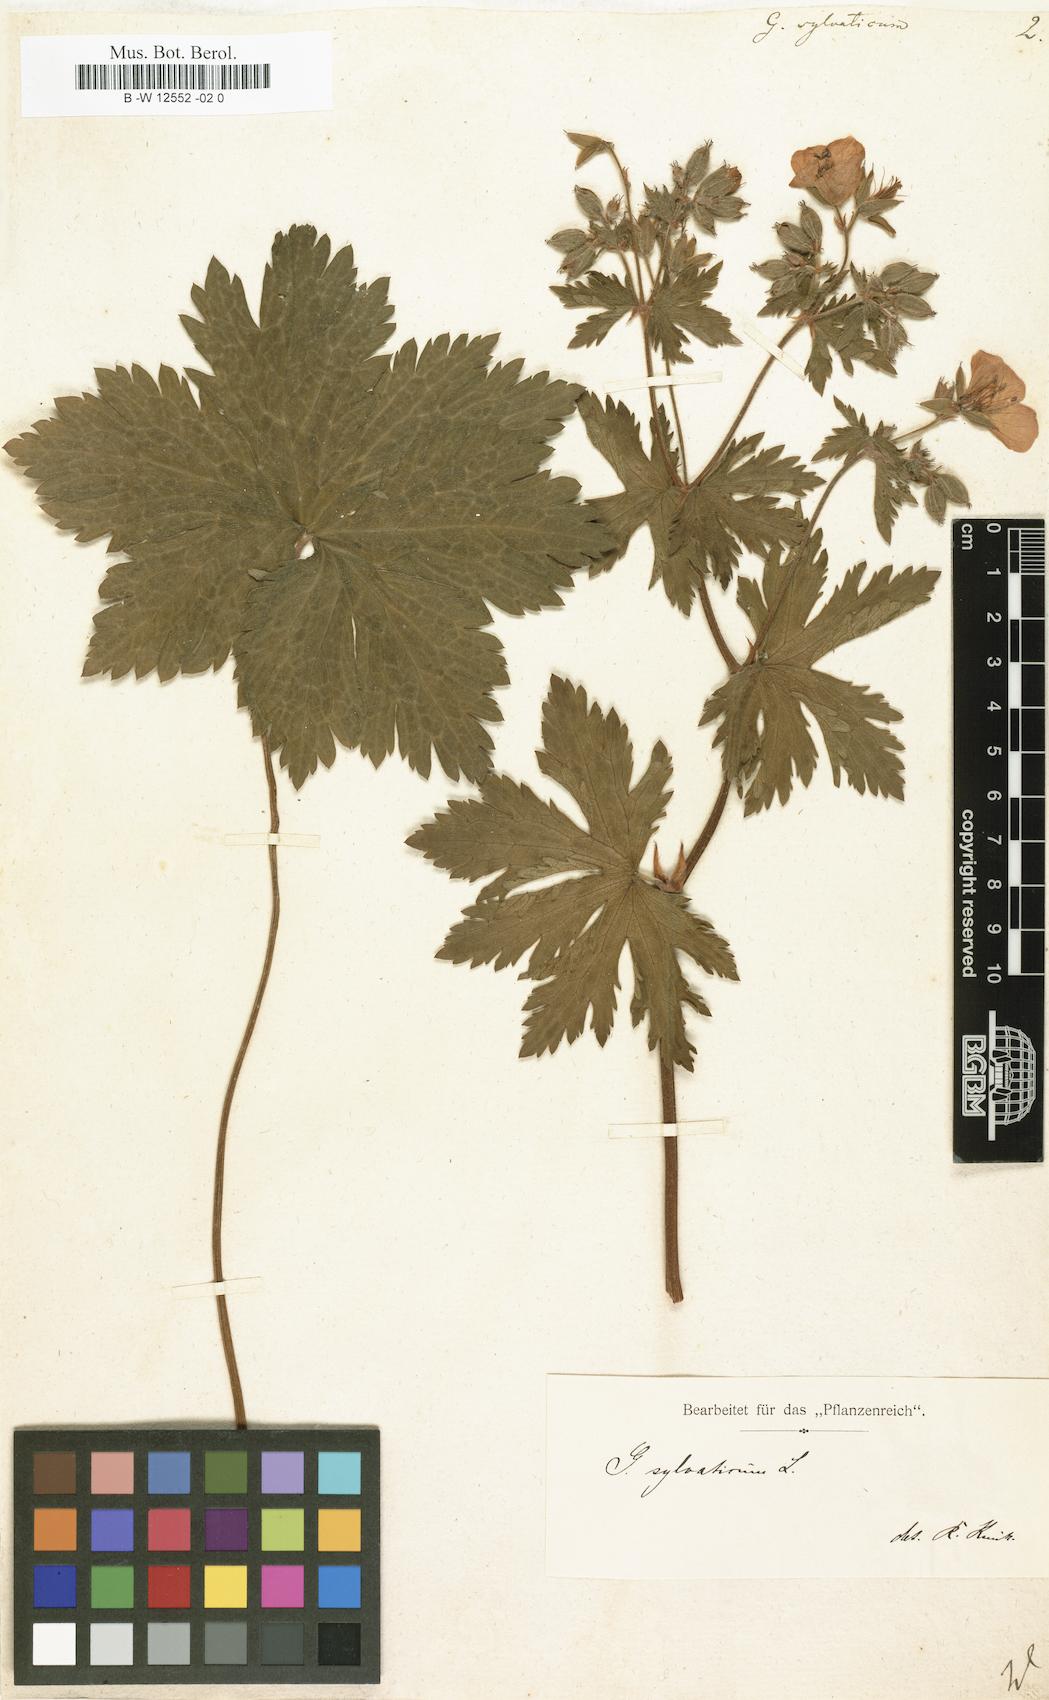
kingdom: Plantae
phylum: Tracheophyta
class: Magnoliopsida
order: Geraniales
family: Geraniaceae
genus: Geranium
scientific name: Geranium sylvaticum
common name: Wood crane's-bill
